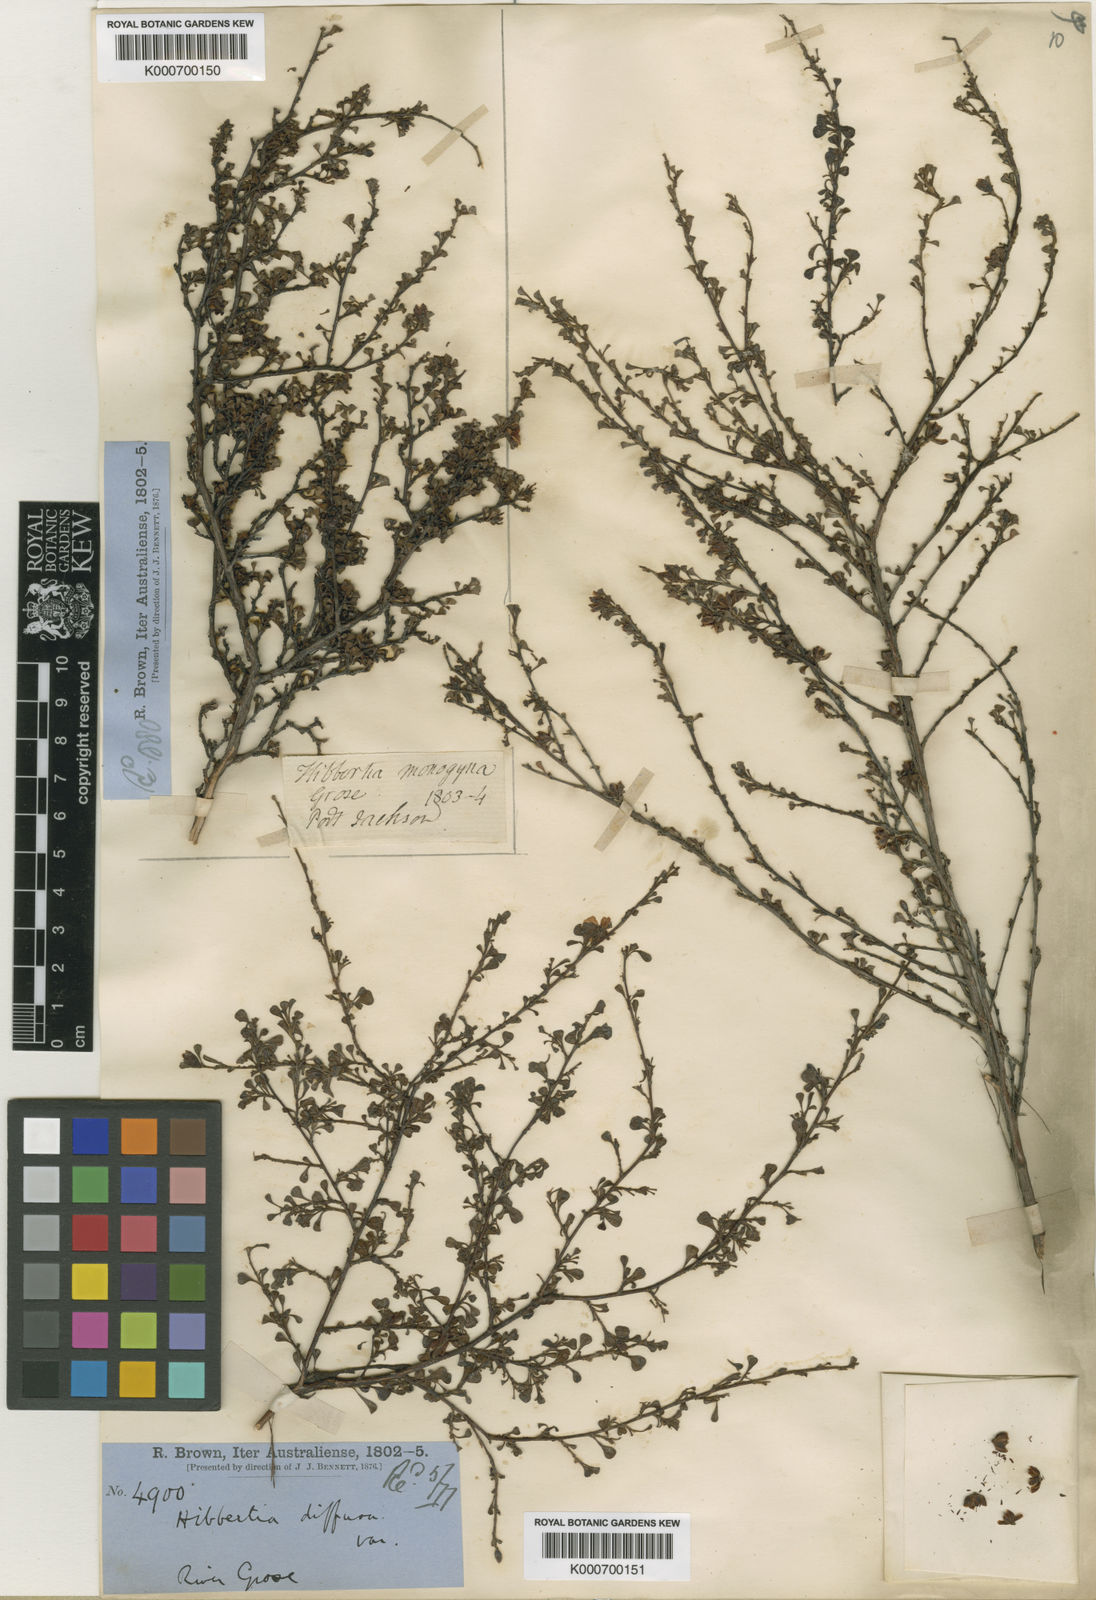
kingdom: Plantae
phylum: Tracheophyta
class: Magnoliopsida
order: Dilleniales
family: Dilleniaceae
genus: Hibbertia
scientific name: Hibbertia diffusa
